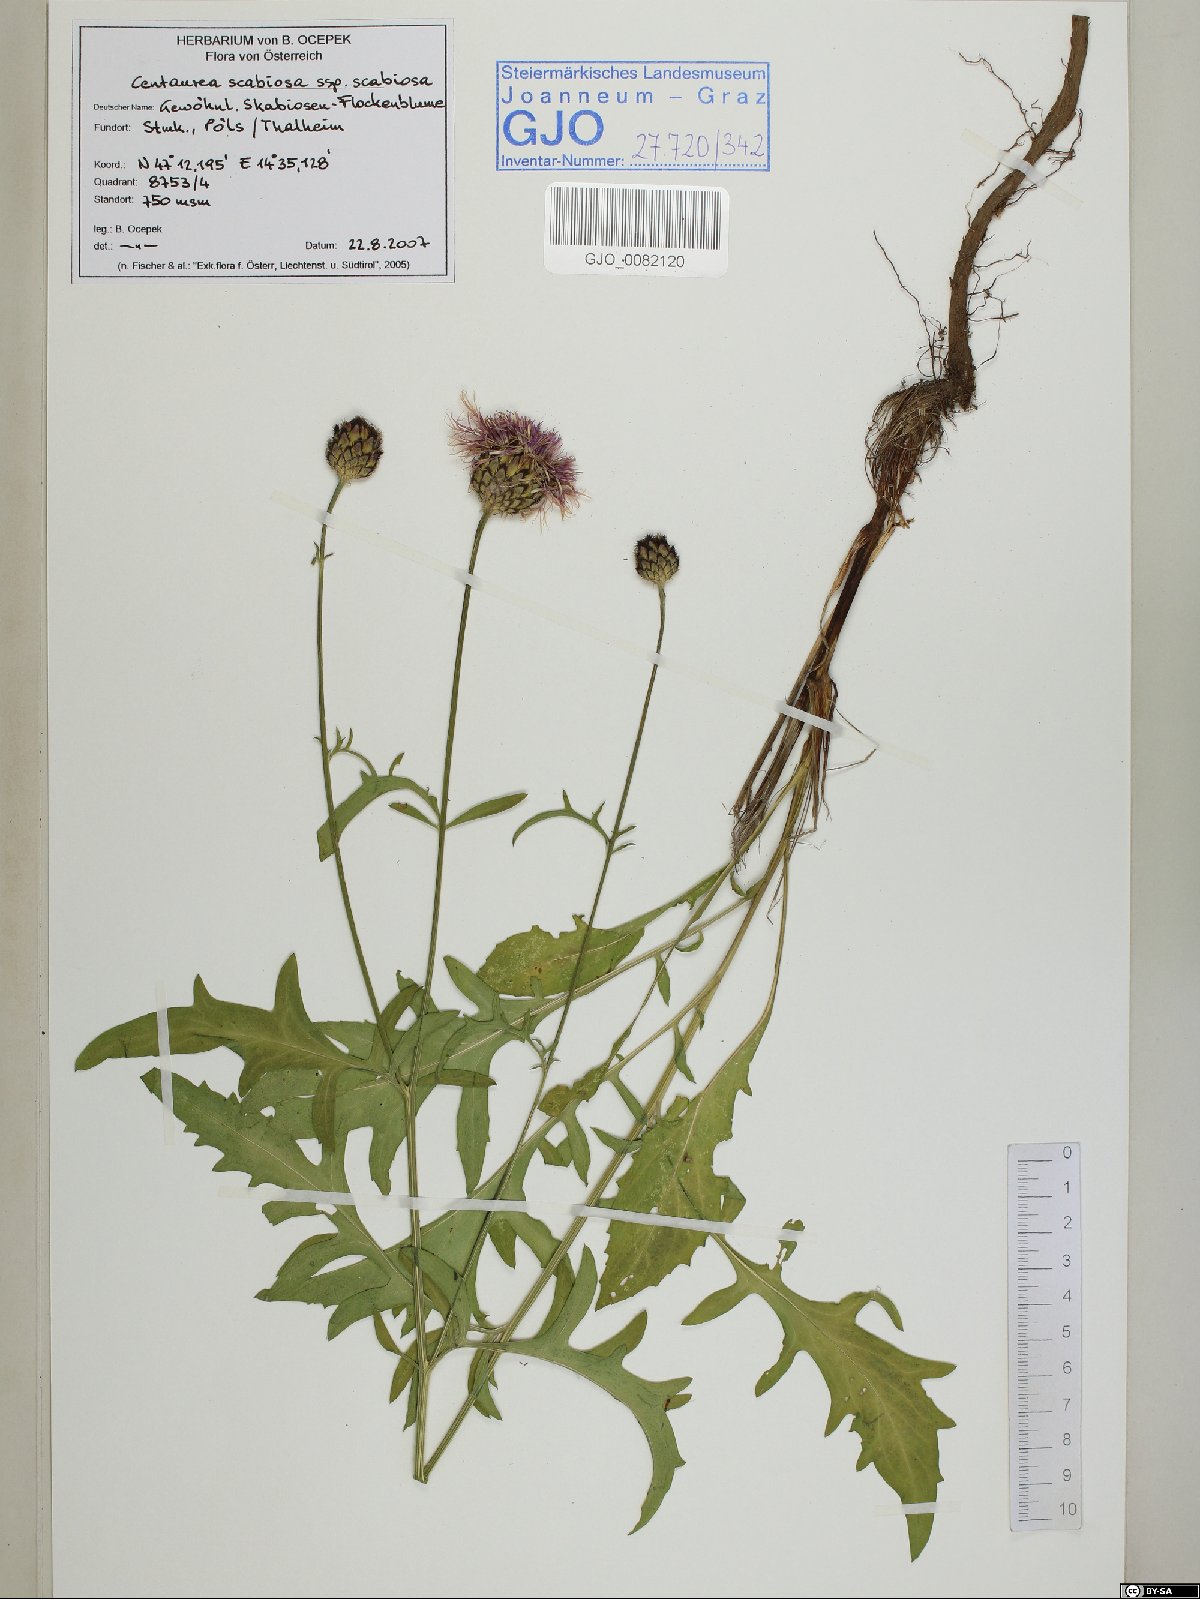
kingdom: Plantae
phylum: Tracheophyta
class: Magnoliopsida
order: Asterales
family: Asteraceae
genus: Centaurea
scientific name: Centaurea scabiosa
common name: Greater knapweed
